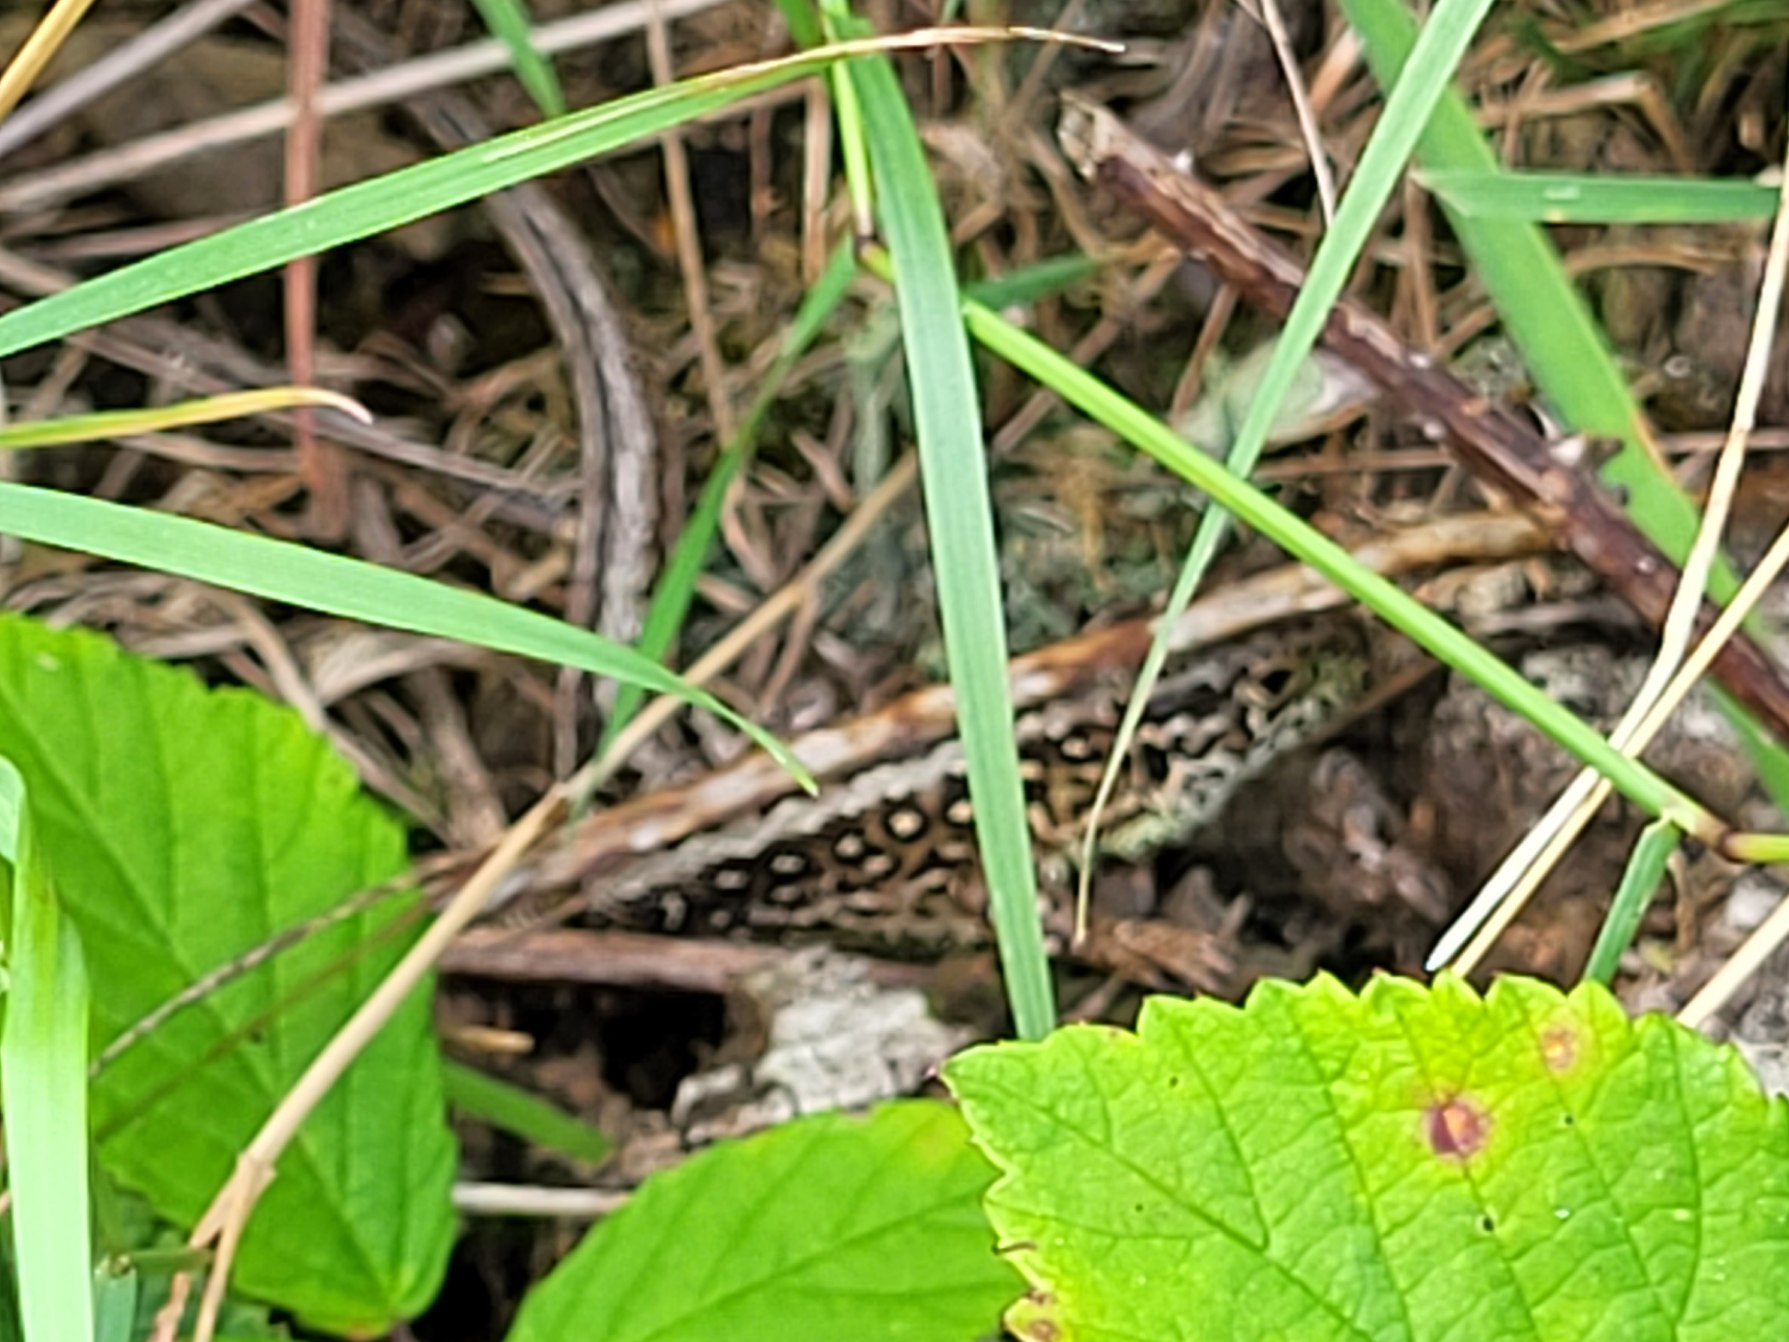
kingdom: Animalia
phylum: Chordata
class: Squamata
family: Lacertidae
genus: Lacerta
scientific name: Lacerta agilis
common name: Markfirben
